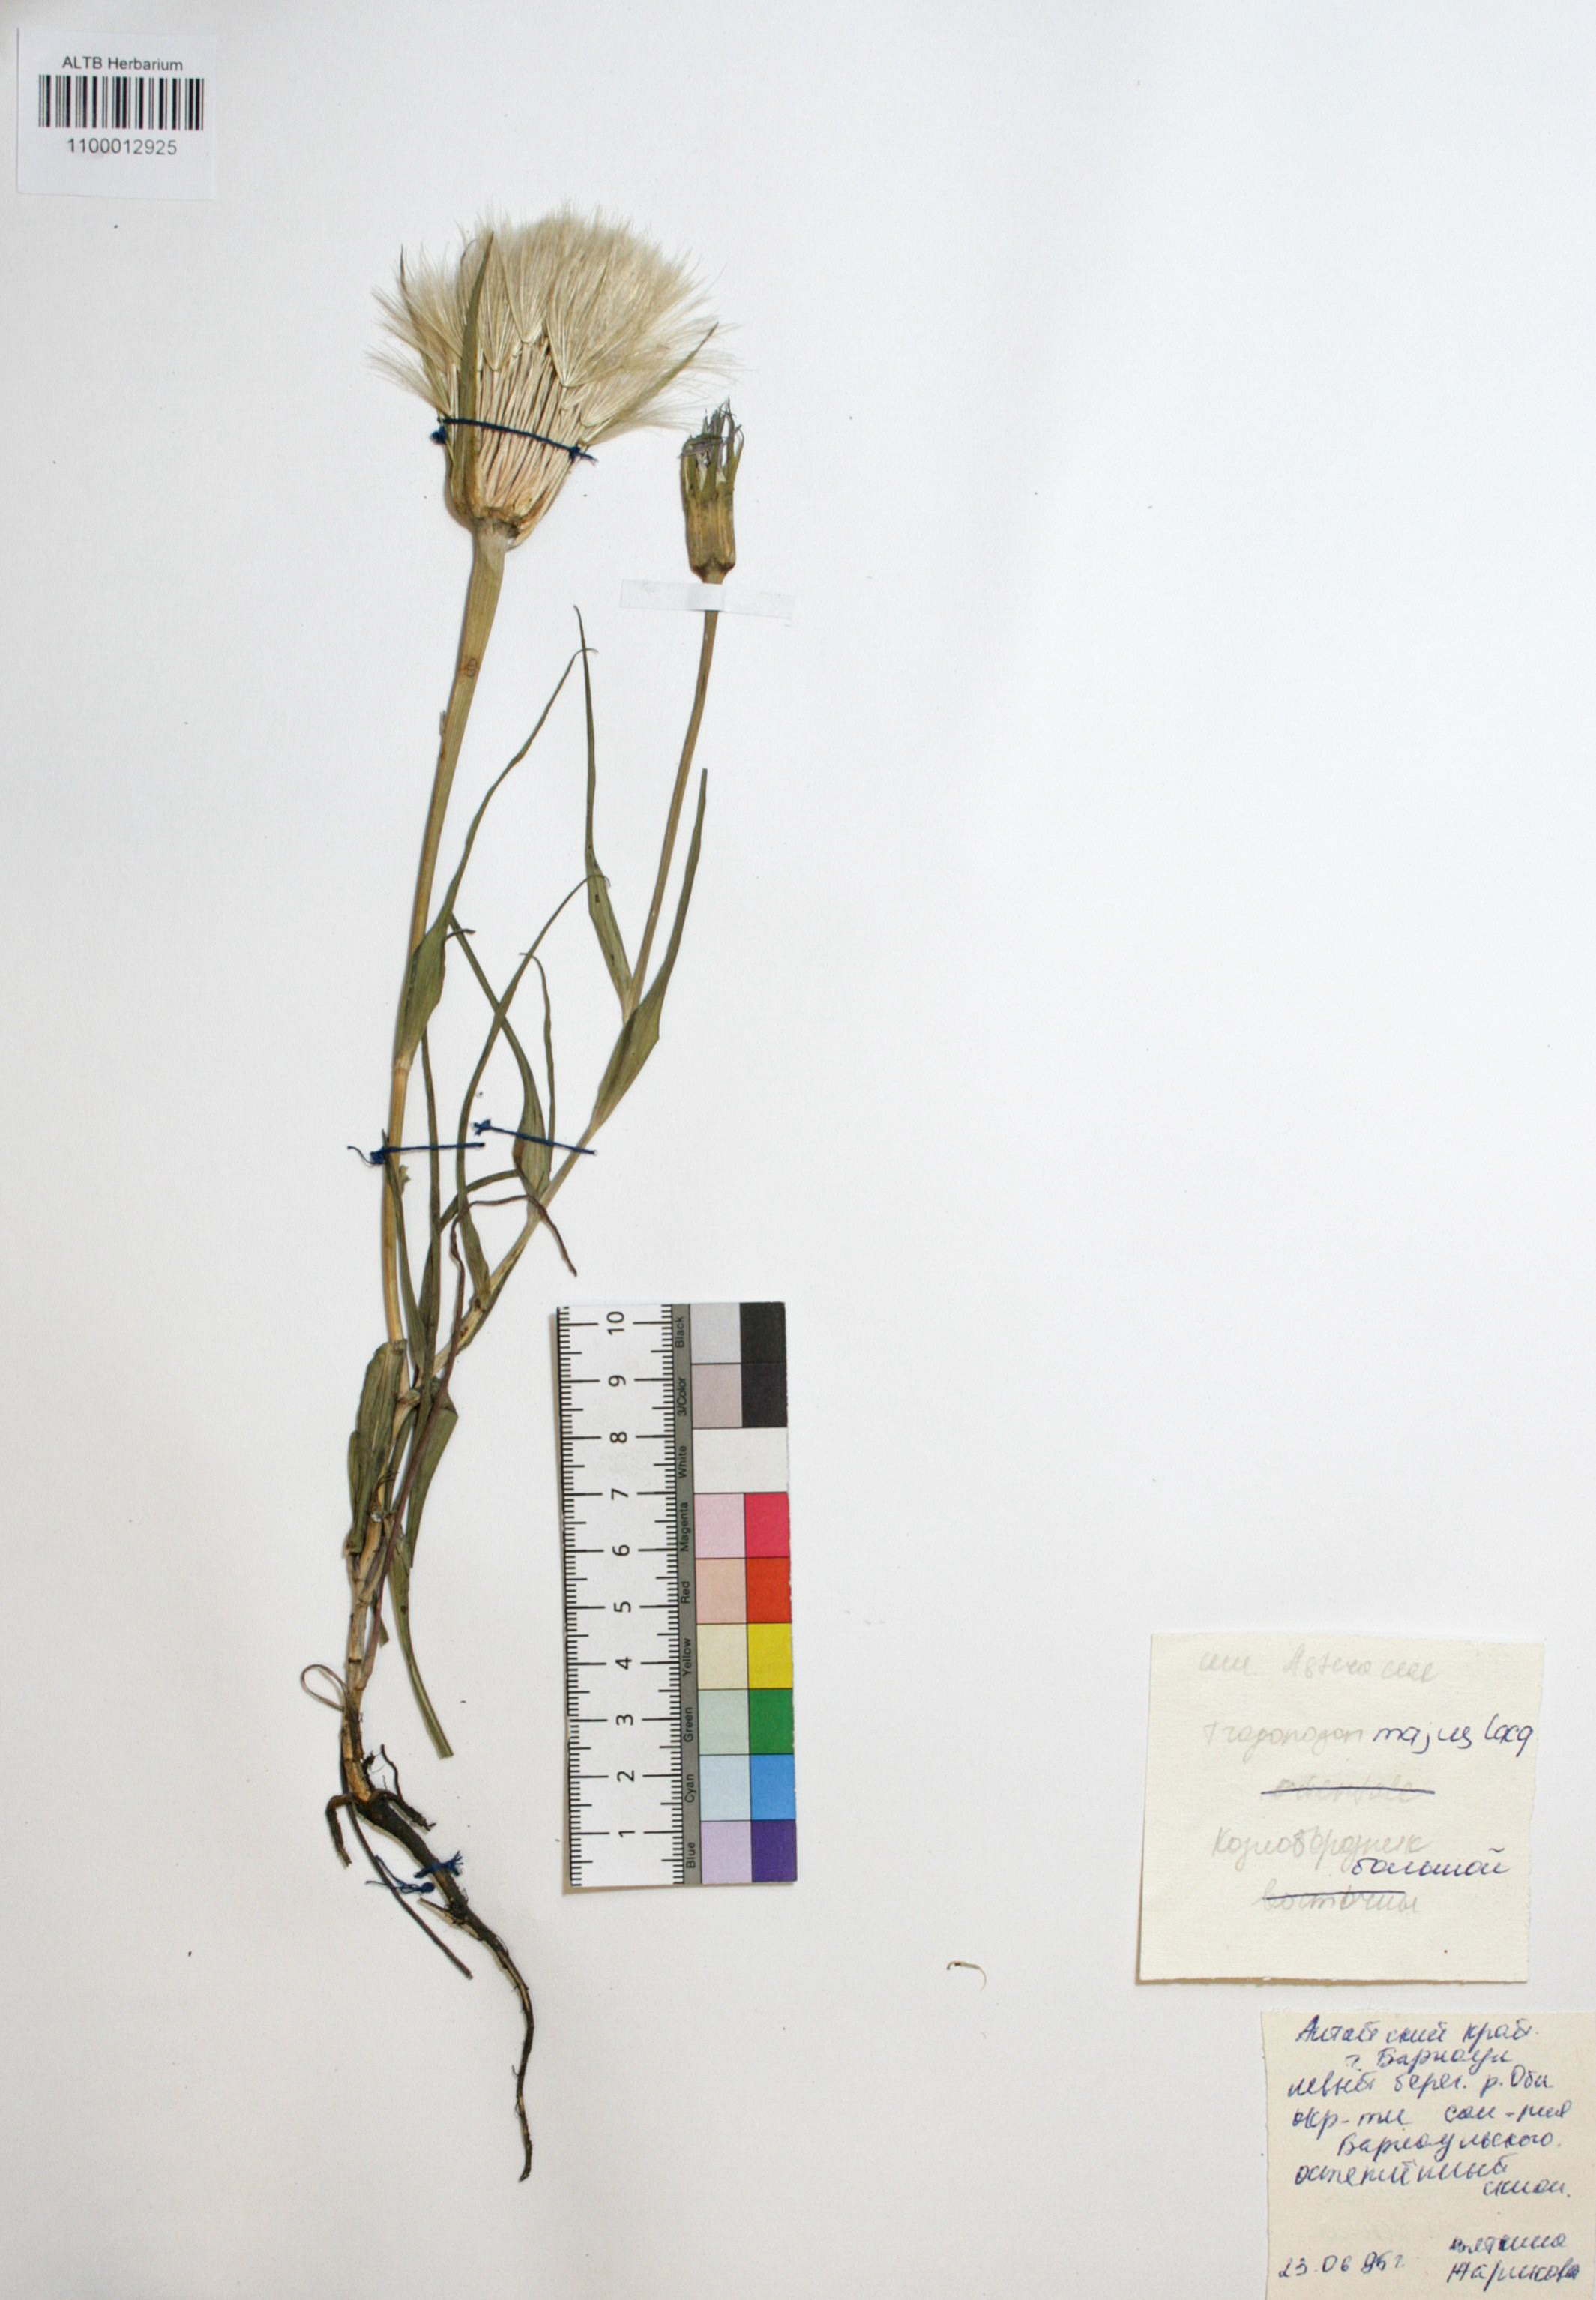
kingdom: Plantae
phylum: Tracheophyta
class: Magnoliopsida
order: Asterales
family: Asteraceae
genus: Tragopogon
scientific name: Tragopogon dubius
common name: Yellow salsify
